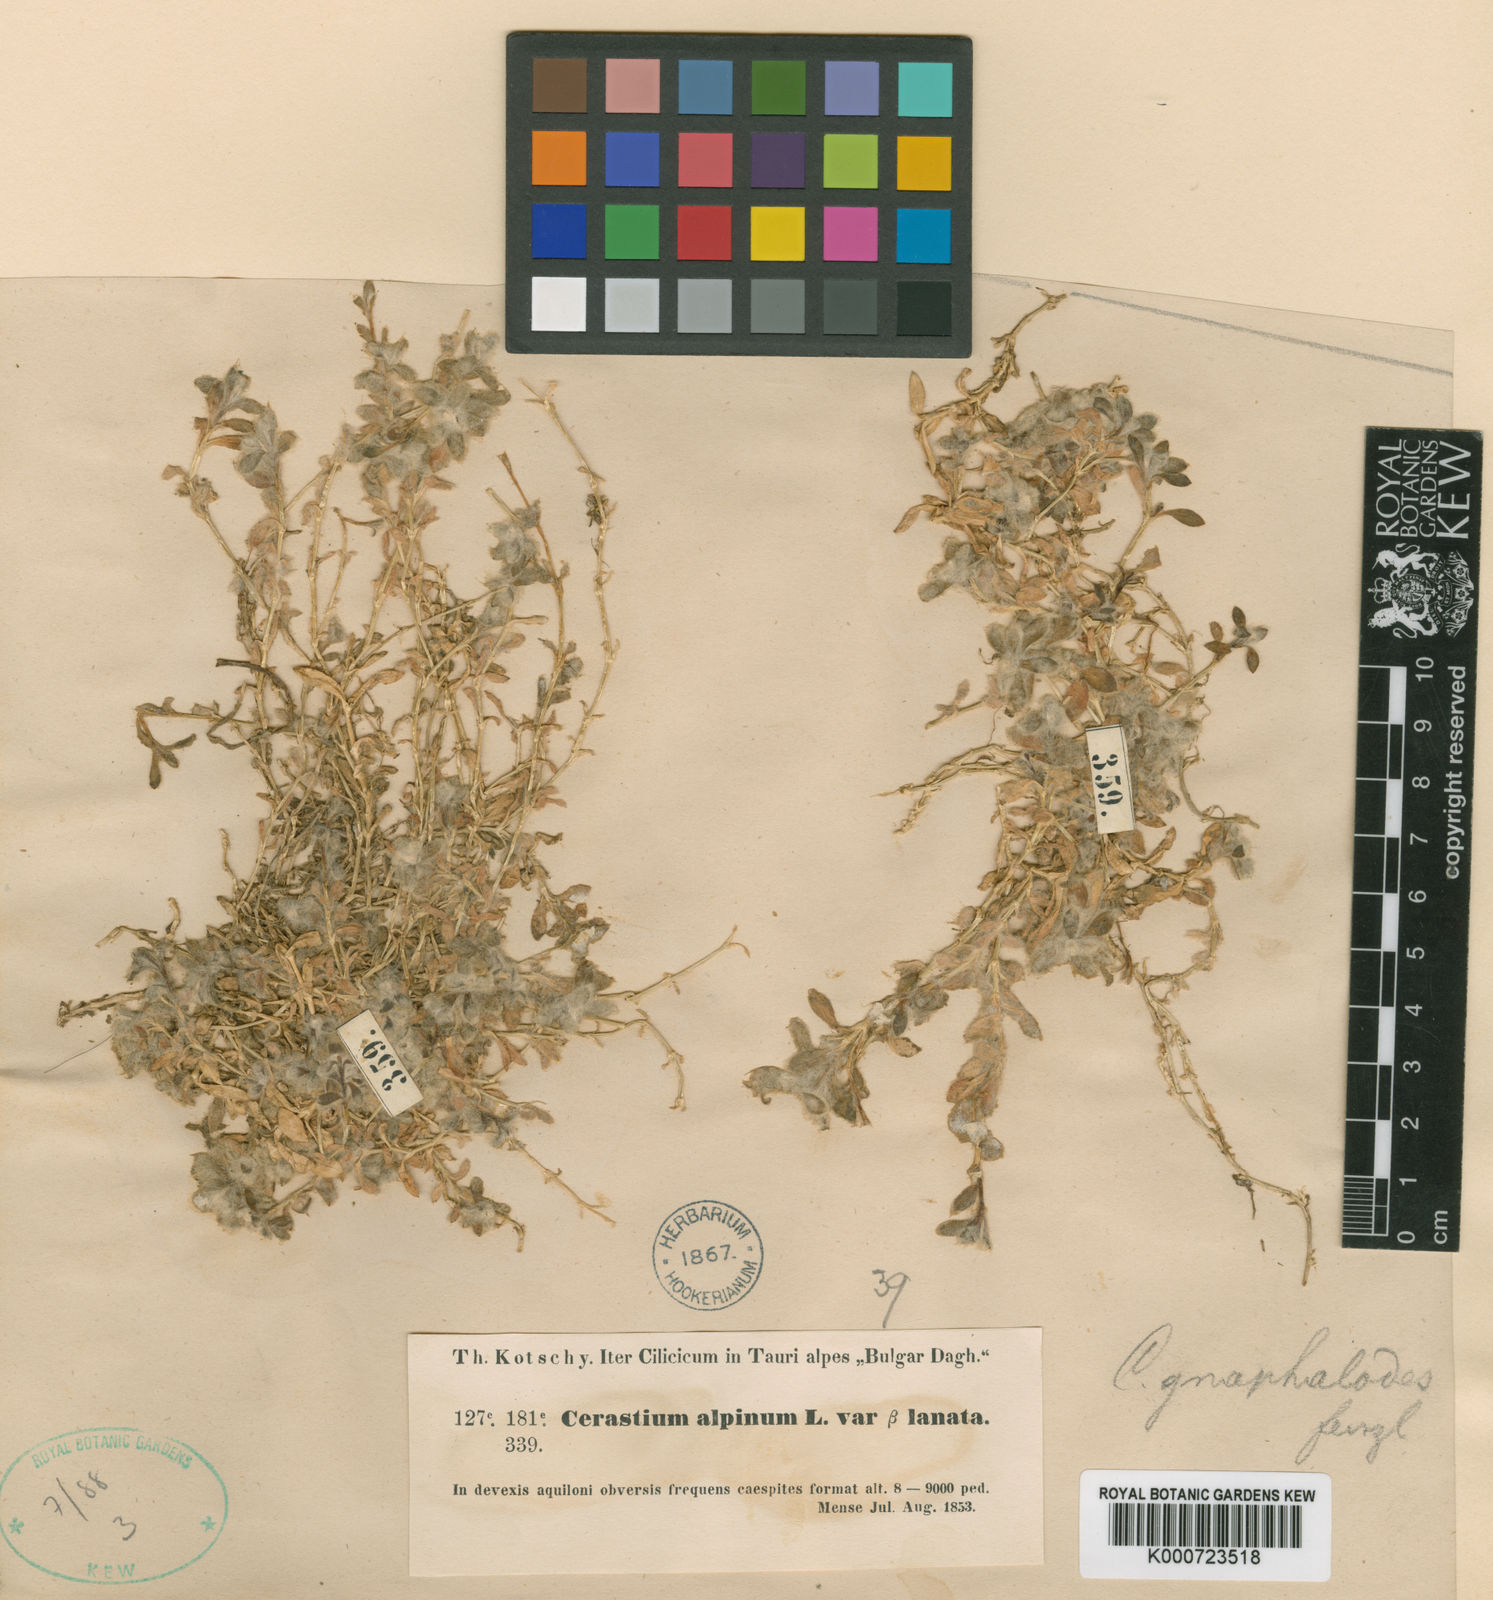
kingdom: Plantae
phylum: Tracheophyta
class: Magnoliopsida
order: Caryophyllales
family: Caryophyllaceae
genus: Cerastium
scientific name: Cerastium gnaphalodes
